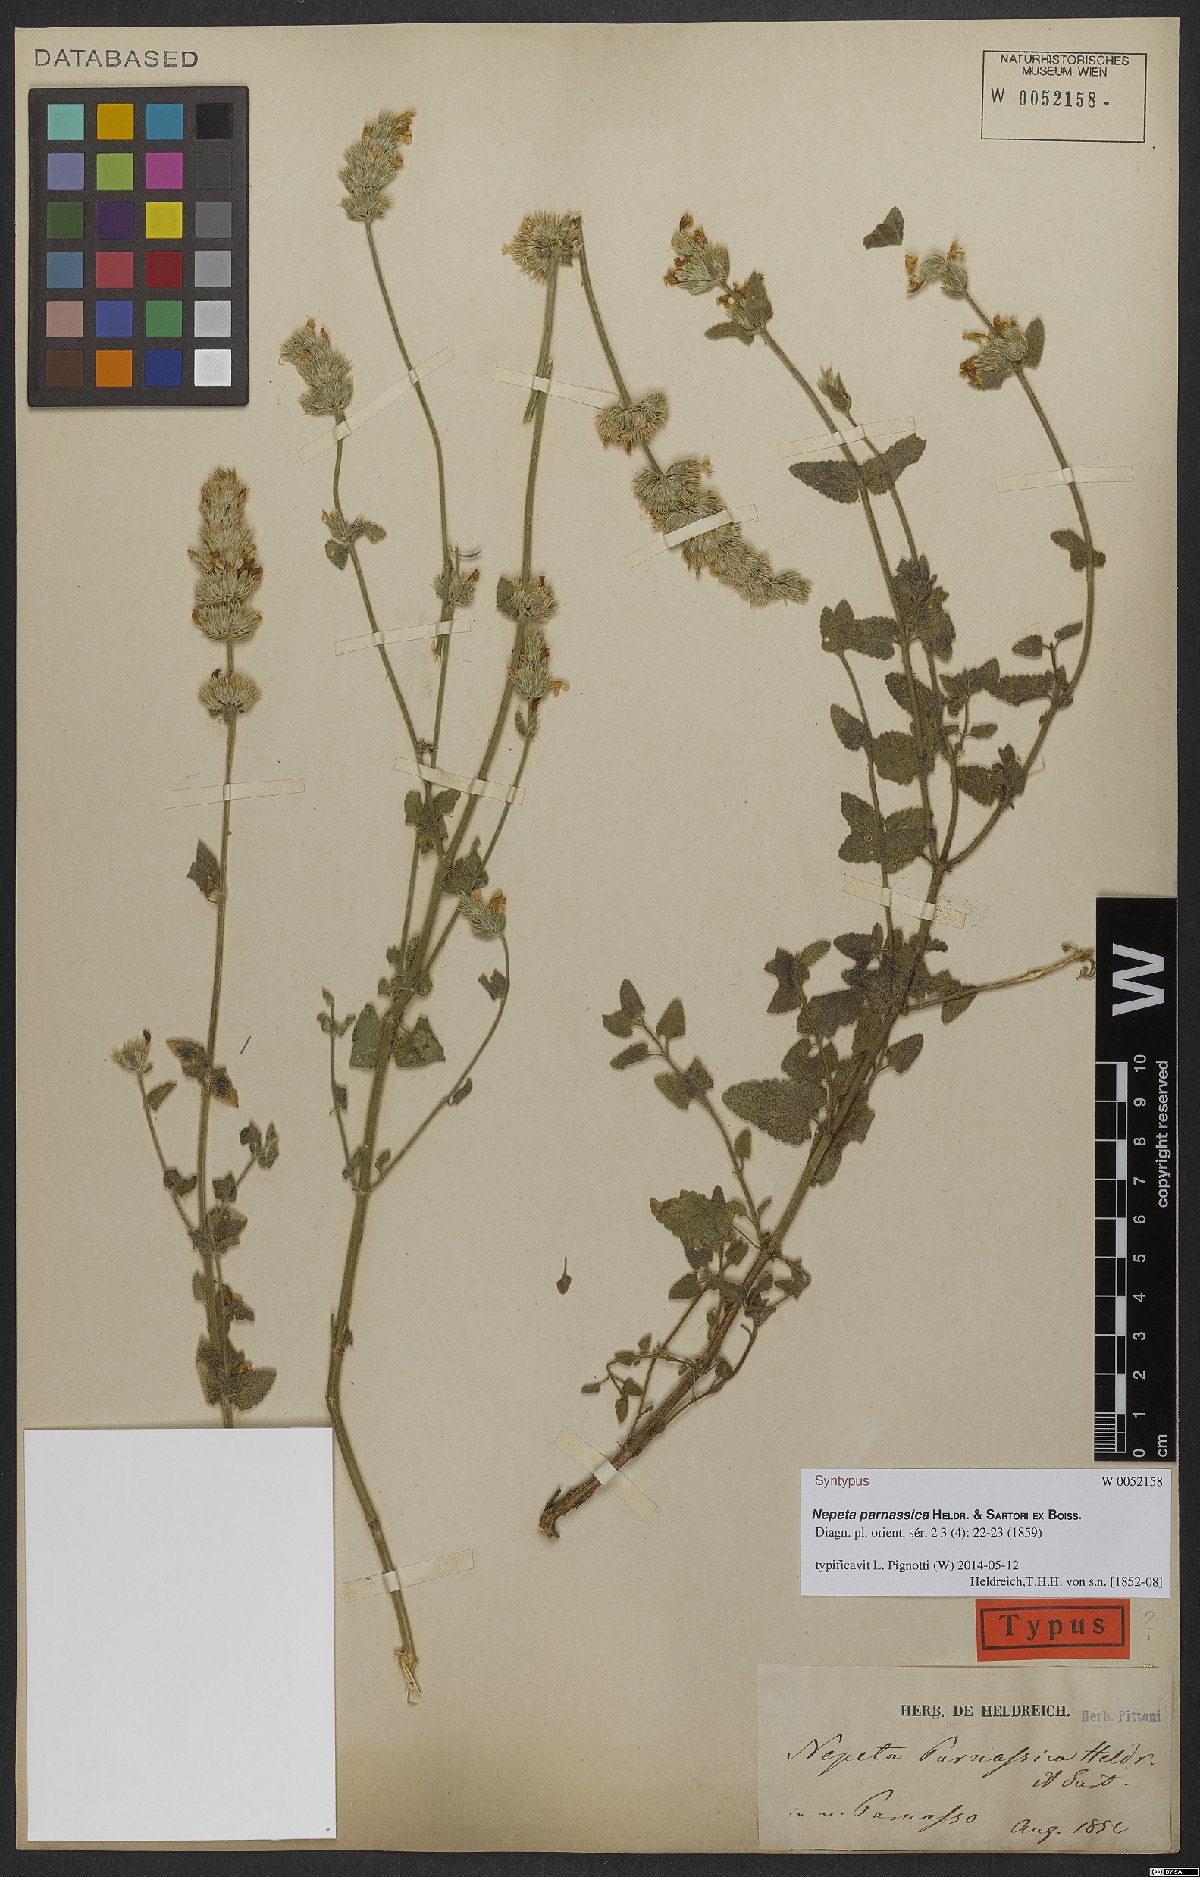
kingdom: Plantae
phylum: Tracheophyta
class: Magnoliopsida
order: Lamiales
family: Lamiaceae
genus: Nepeta
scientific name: Nepeta parnassica
